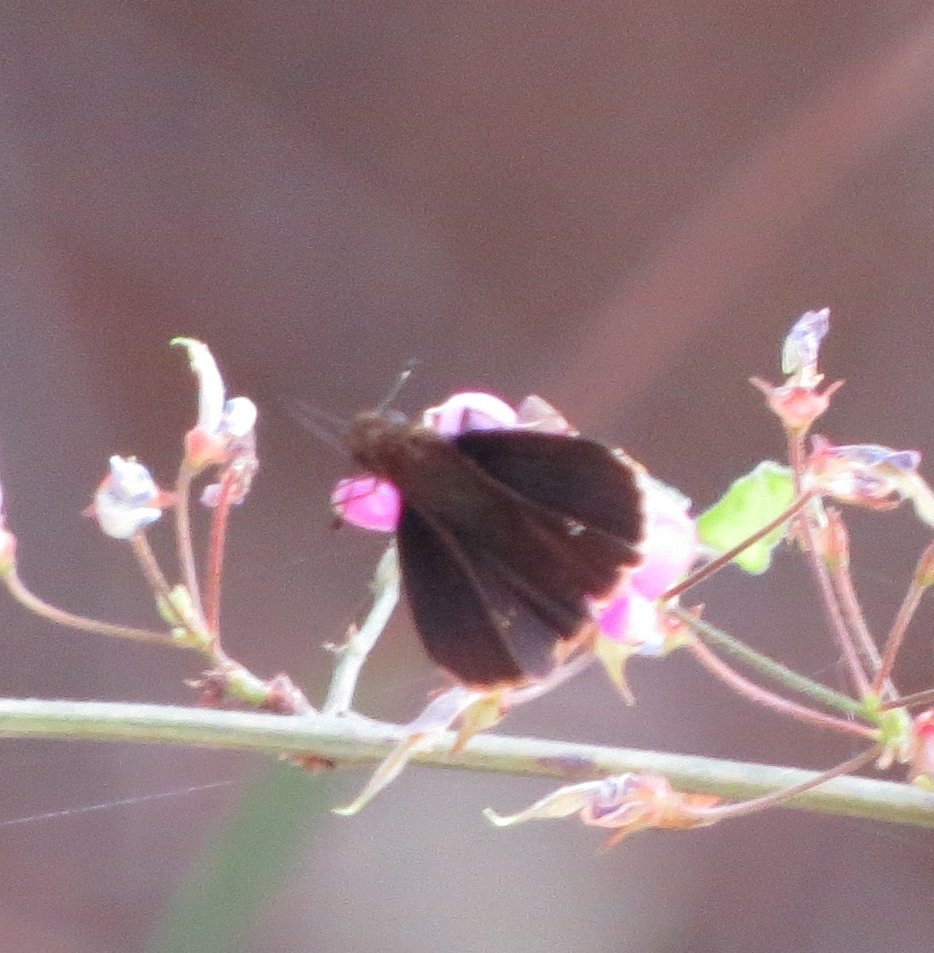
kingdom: Animalia
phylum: Arthropoda
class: Insecta
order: Lepidoptera
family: Hesperiidae
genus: Lerema
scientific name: Lerema accius
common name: Clouded Skipper
